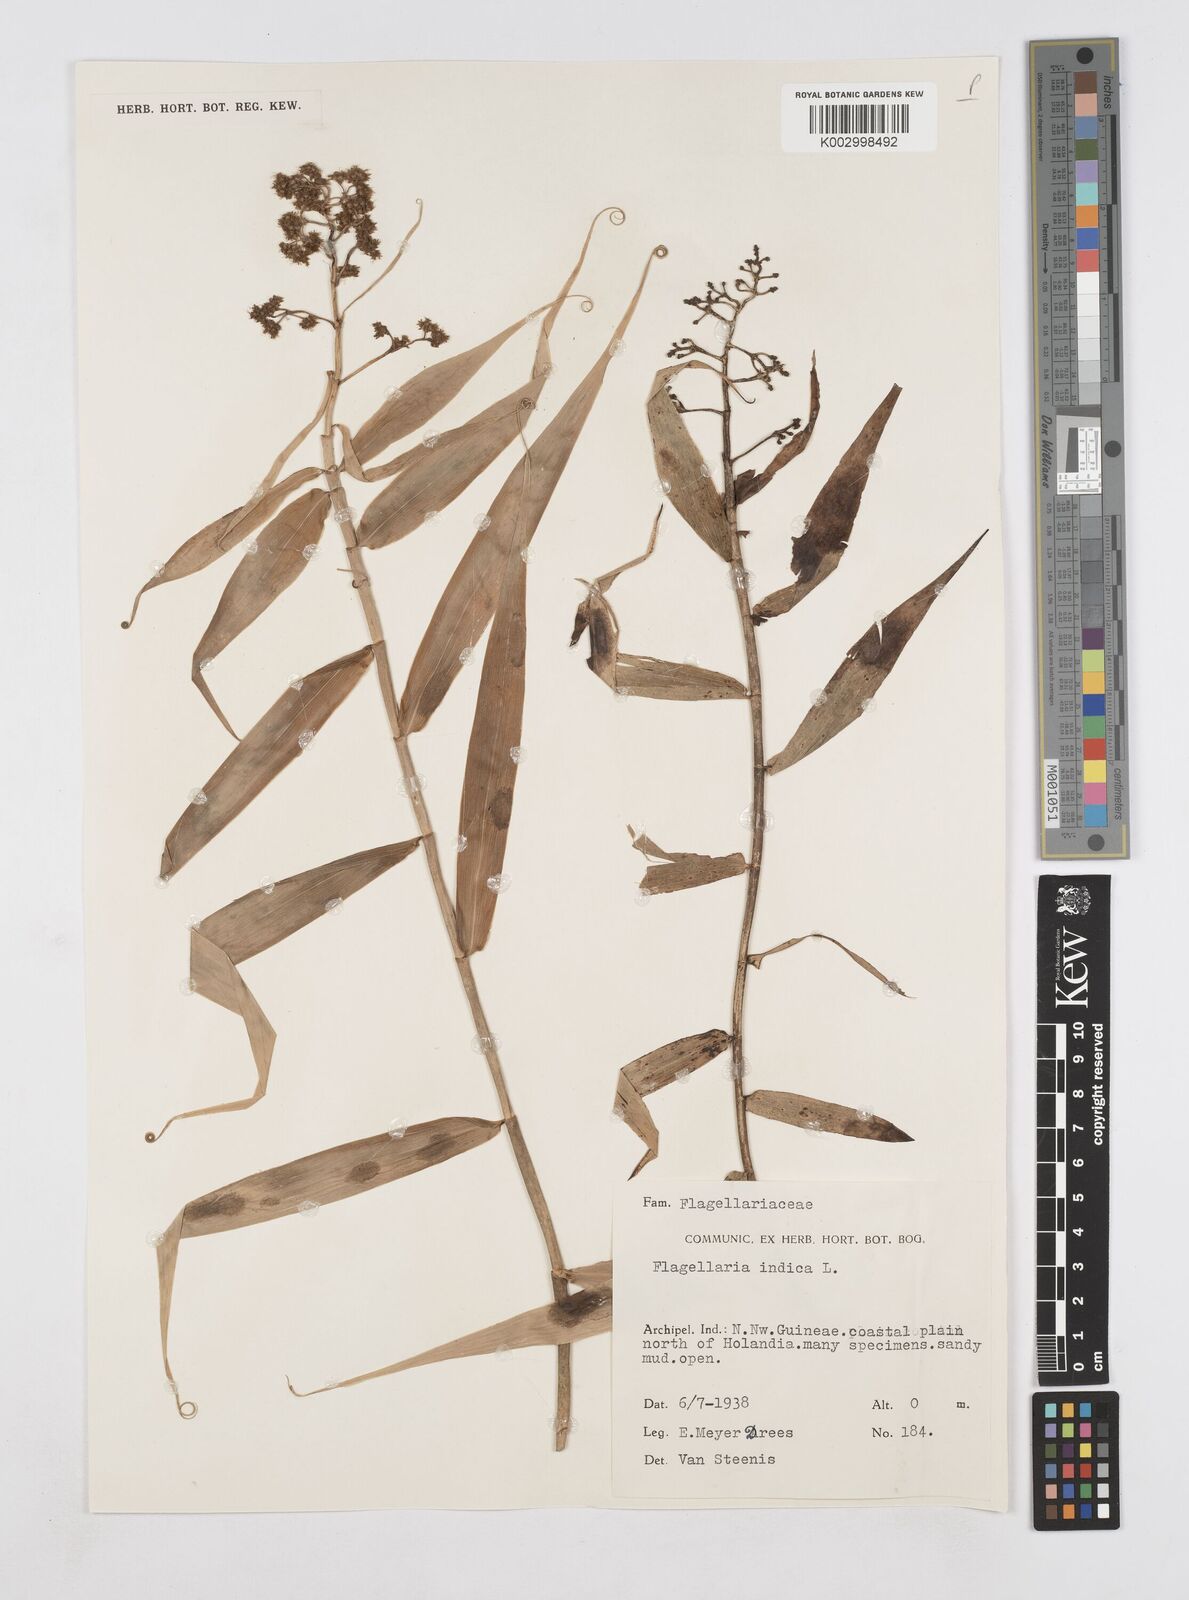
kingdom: Plantae
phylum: Tracheophyta
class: Liliopsida
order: Poales
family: Flagellariaceae
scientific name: Flagellariaceae
